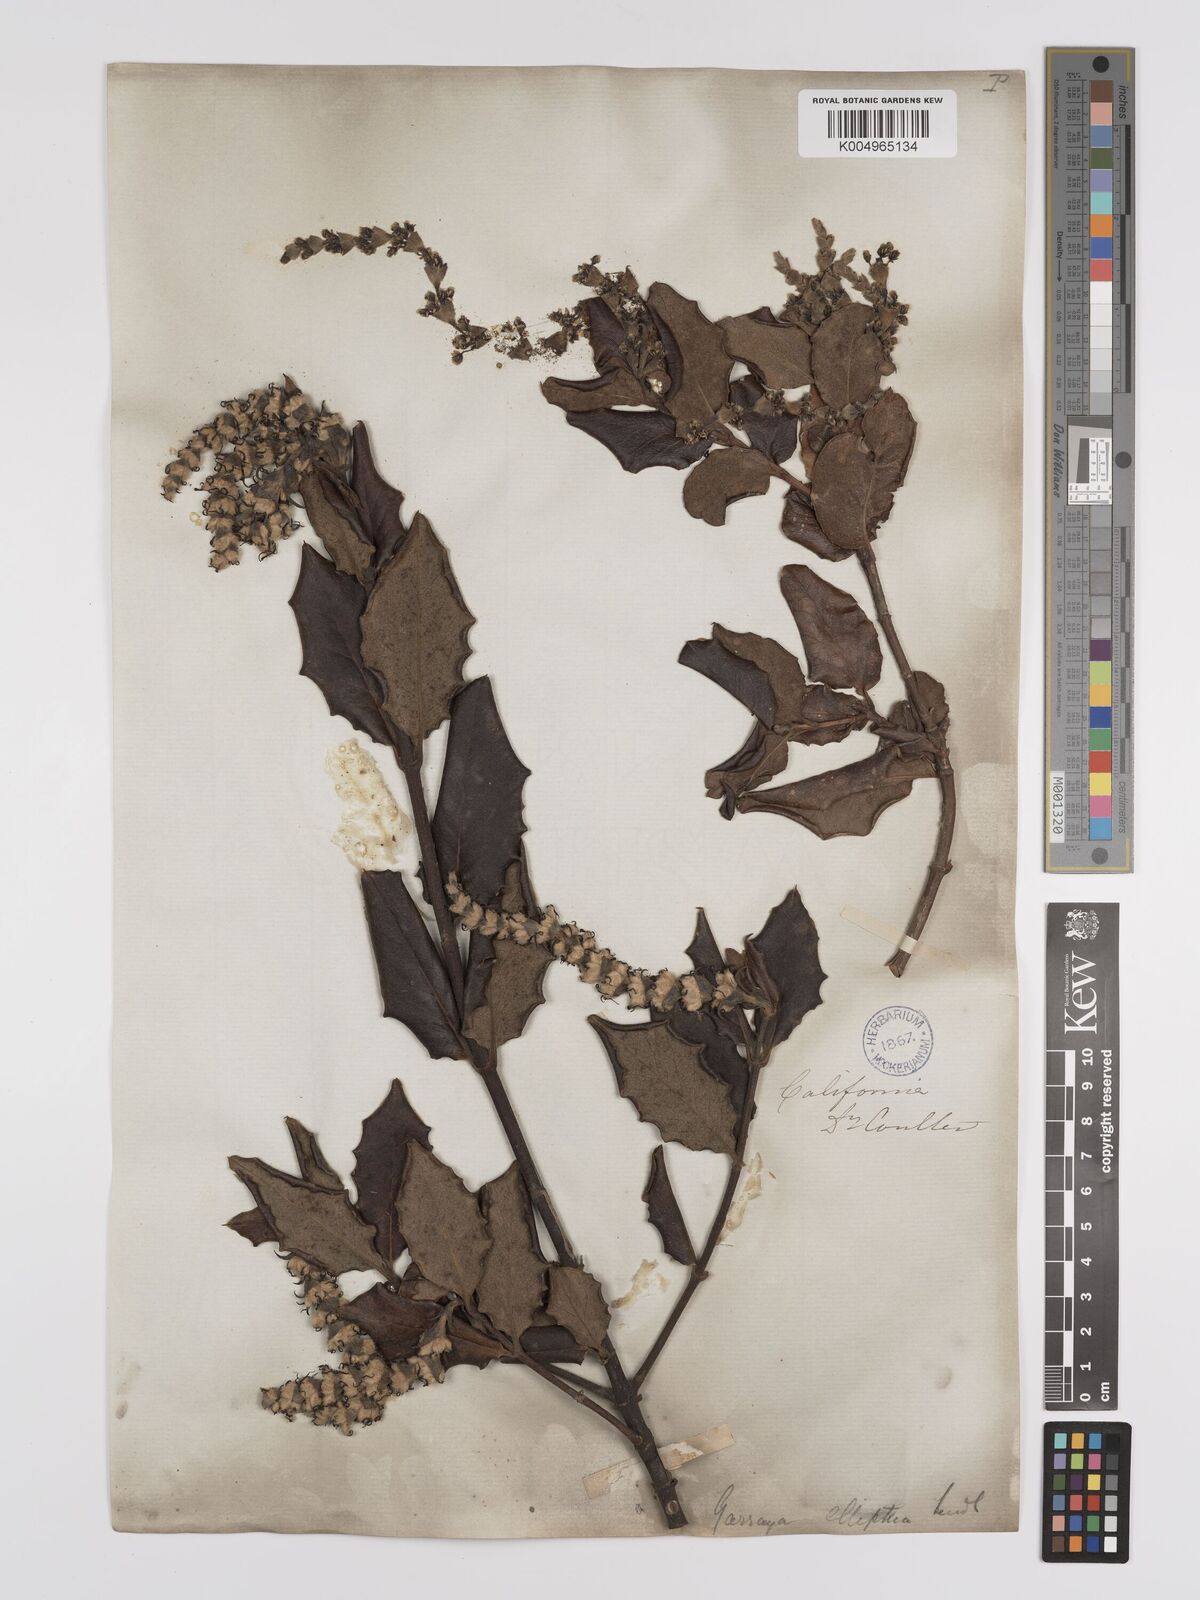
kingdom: Plantae
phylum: Tracheophyta
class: Magnoliopsida
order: Garryales
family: Garryaceae
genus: Garrya
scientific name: Garrya elliptica
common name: Silk-tassel
